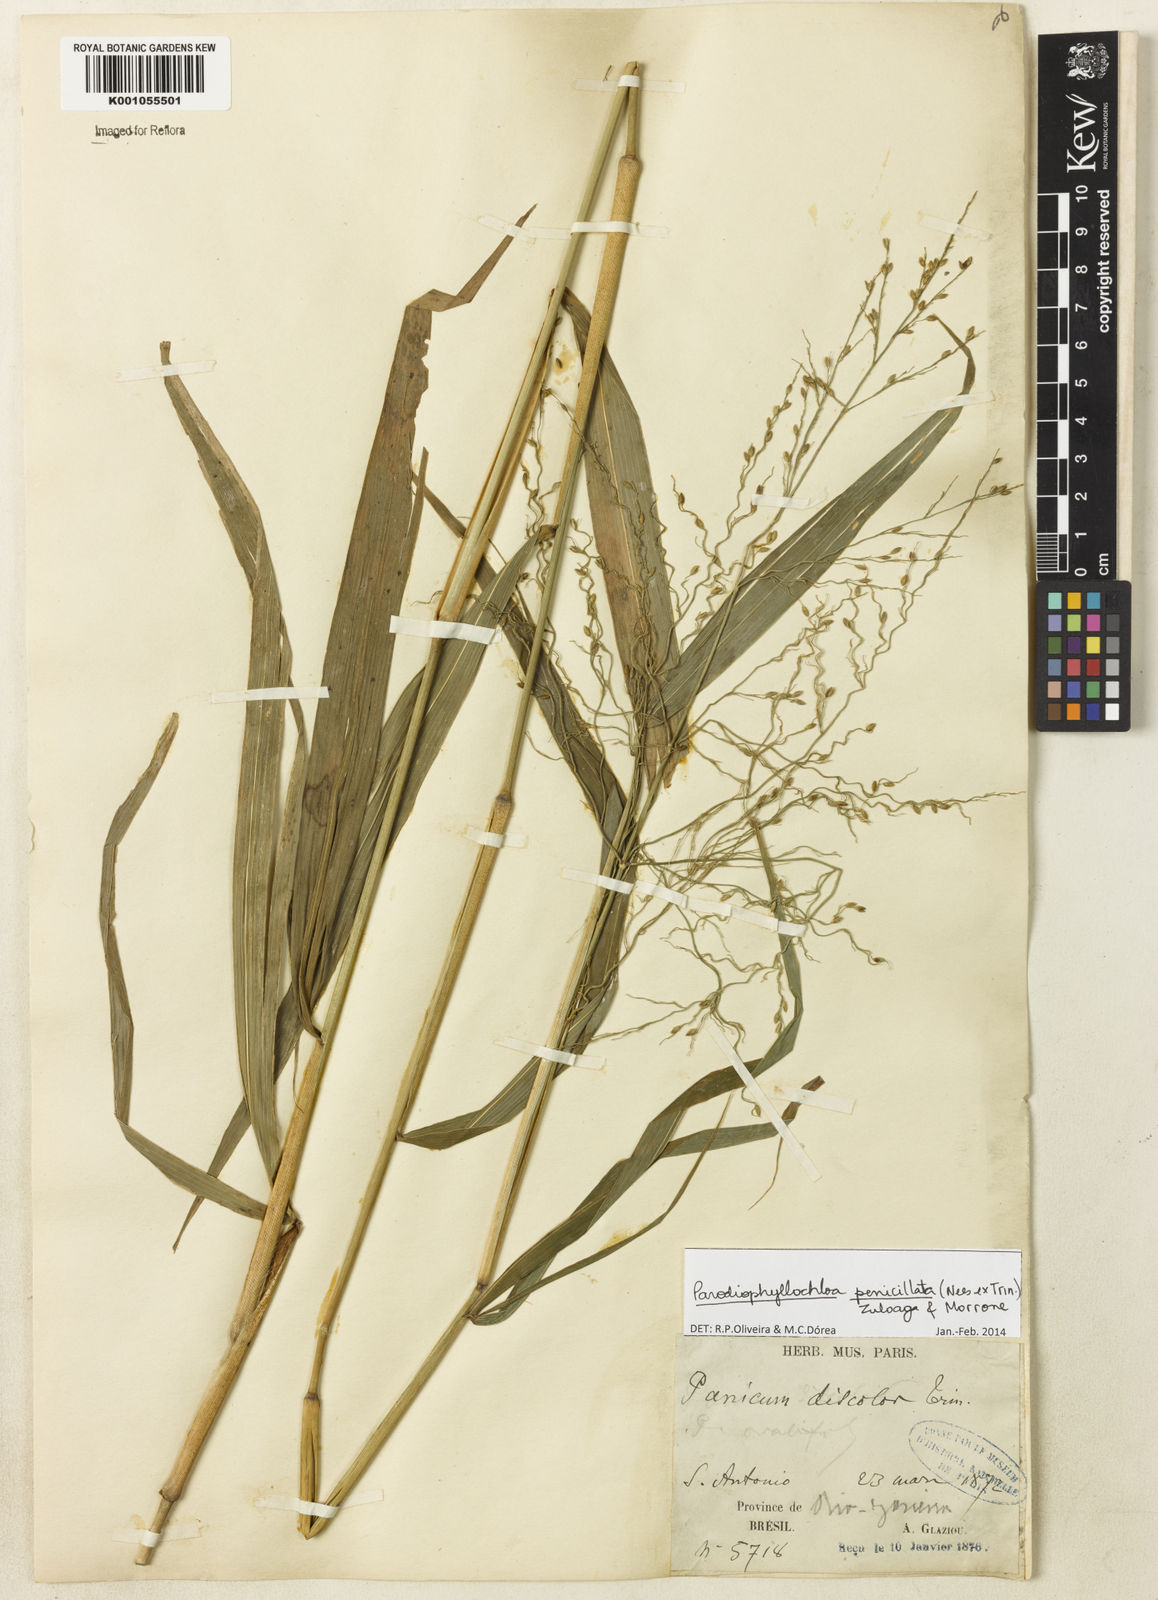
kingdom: Plantae
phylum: Tracheophyta
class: Liliopsida
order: Poales
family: Poaceae
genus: Panicum
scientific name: Panicum
